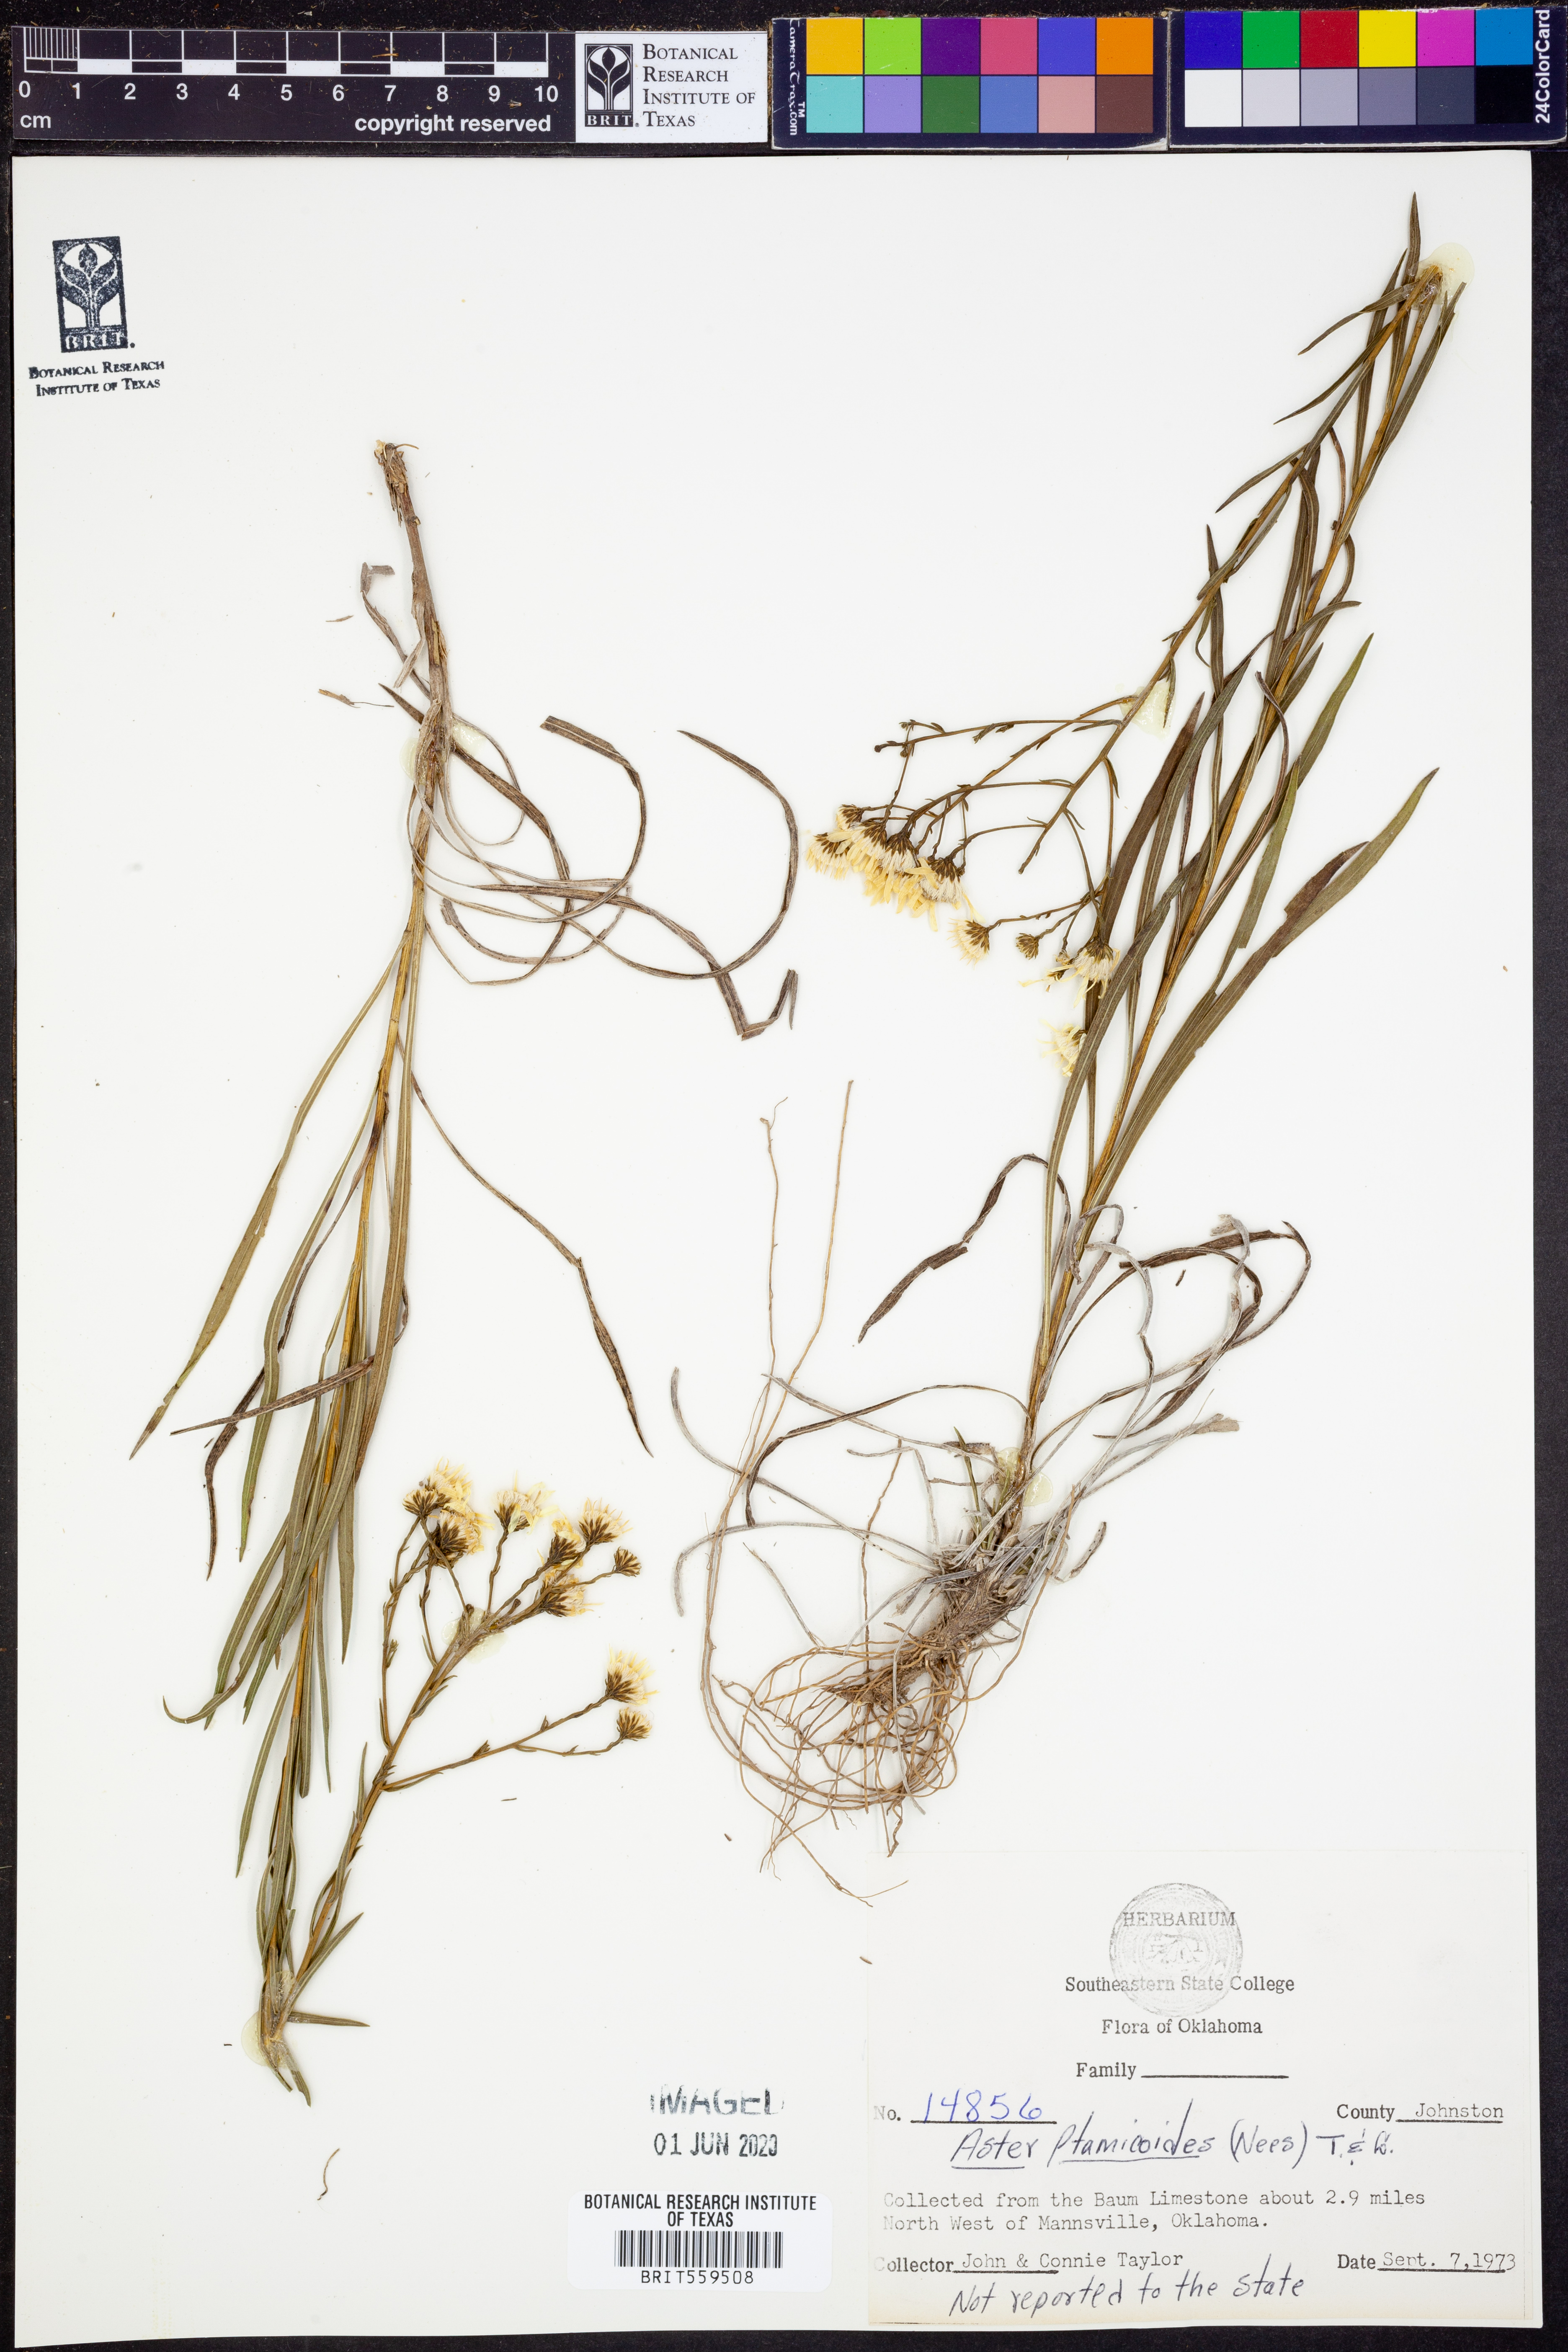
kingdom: Plantae
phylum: Tracheophyta
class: Magnoliopsida
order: Asterales
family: Asteraceae
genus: Solidago
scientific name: Solidago ptarmicoides
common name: White flat-top goldenrod
